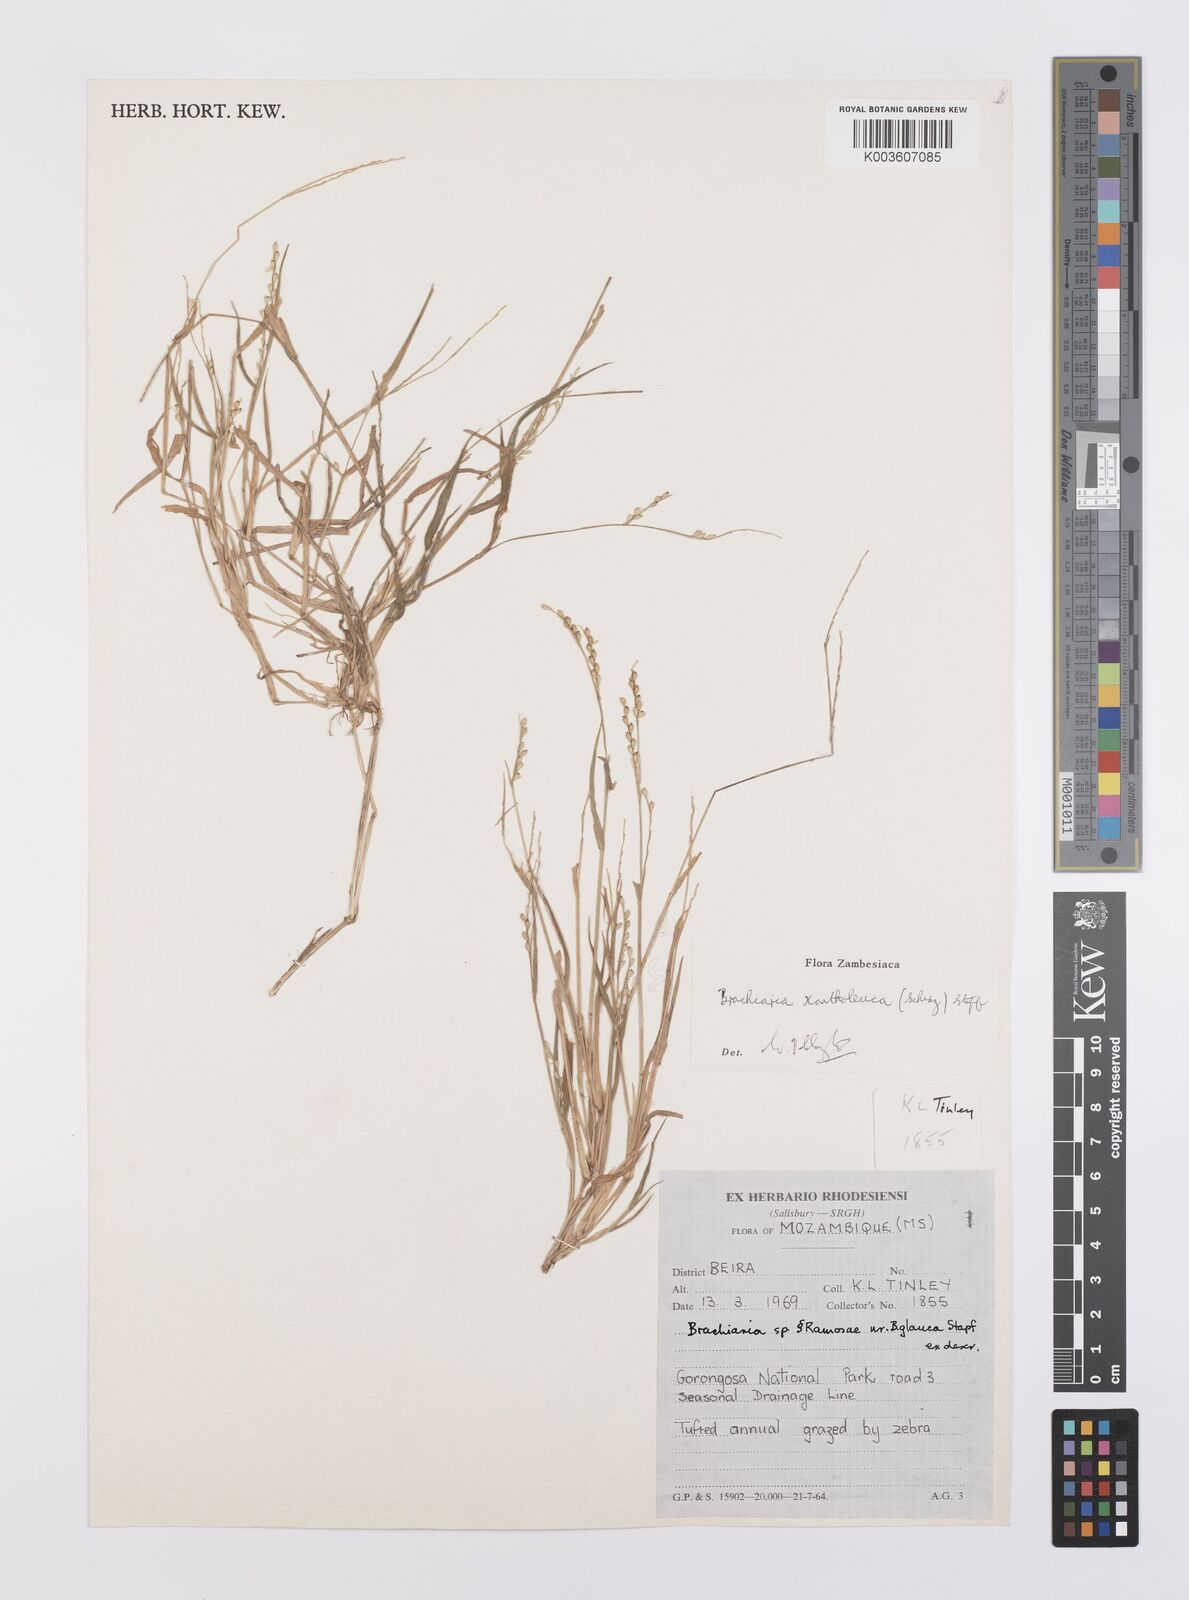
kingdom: Plantae
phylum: Tracheophyta
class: Liliopsida
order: Poales
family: Poaceae
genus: Urochloa
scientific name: Urochloa xantholeuca
